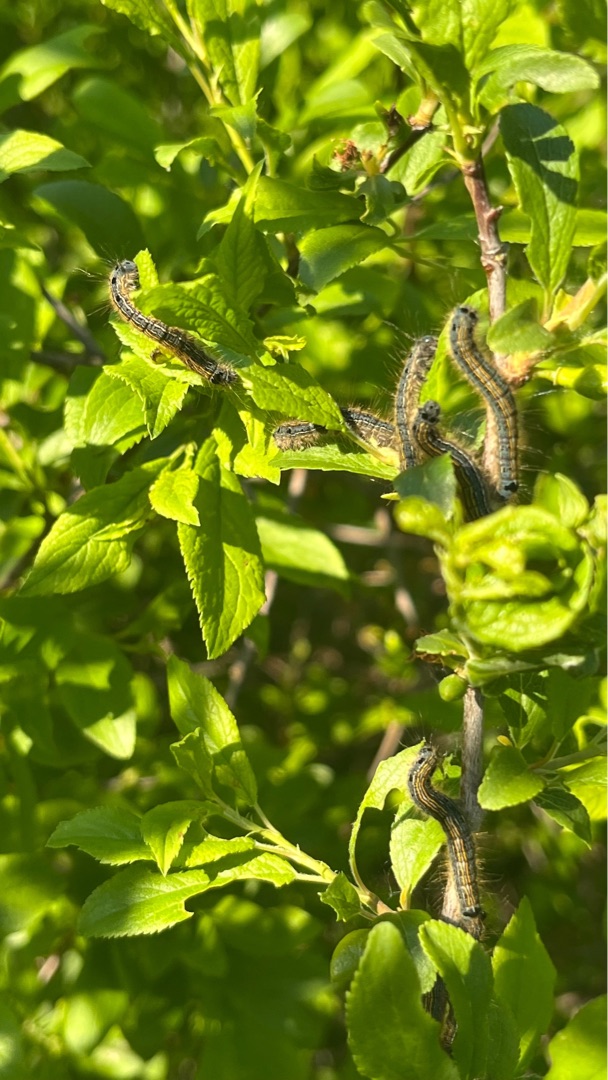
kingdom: Animalia
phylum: Arthropoda
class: Insecta
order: Lepidoptera
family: Lasiocampidae
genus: Malacosoma
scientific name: Malacosoma neustria
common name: Ringspinder
